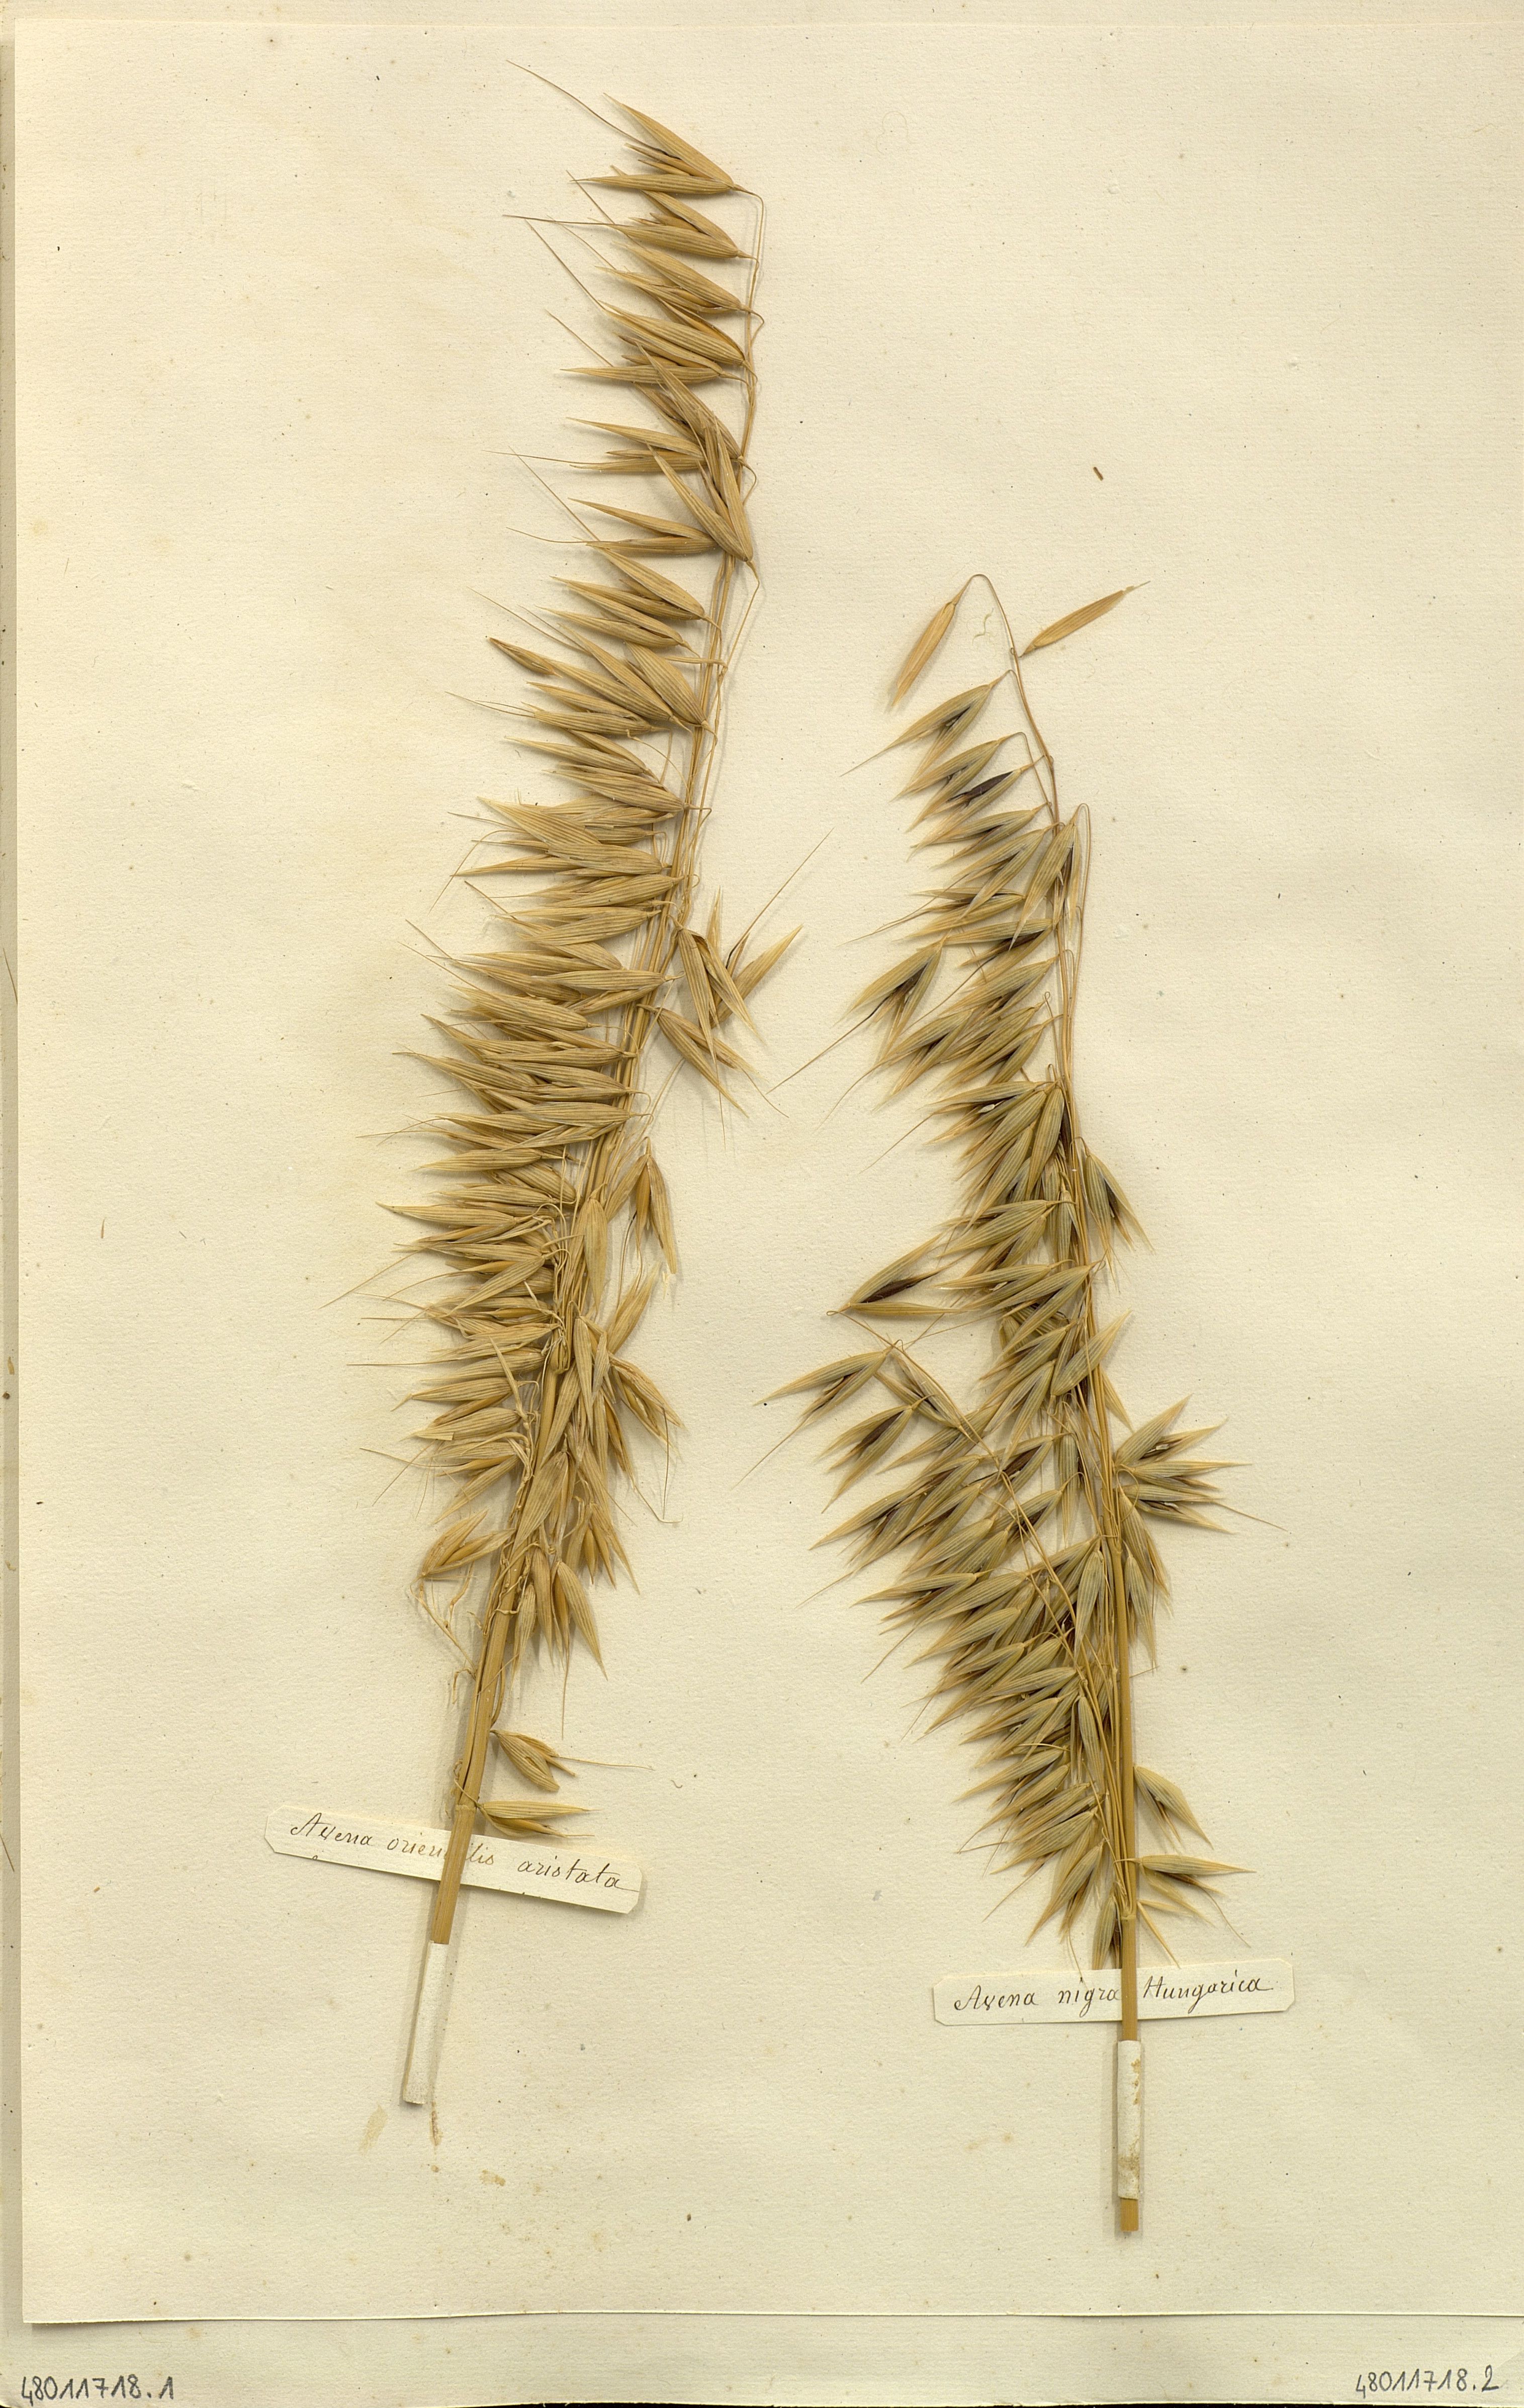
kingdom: Plantae
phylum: Tracheophyta
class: Liliopsida
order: Poales
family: Poaceae
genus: Avena
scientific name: Avena
